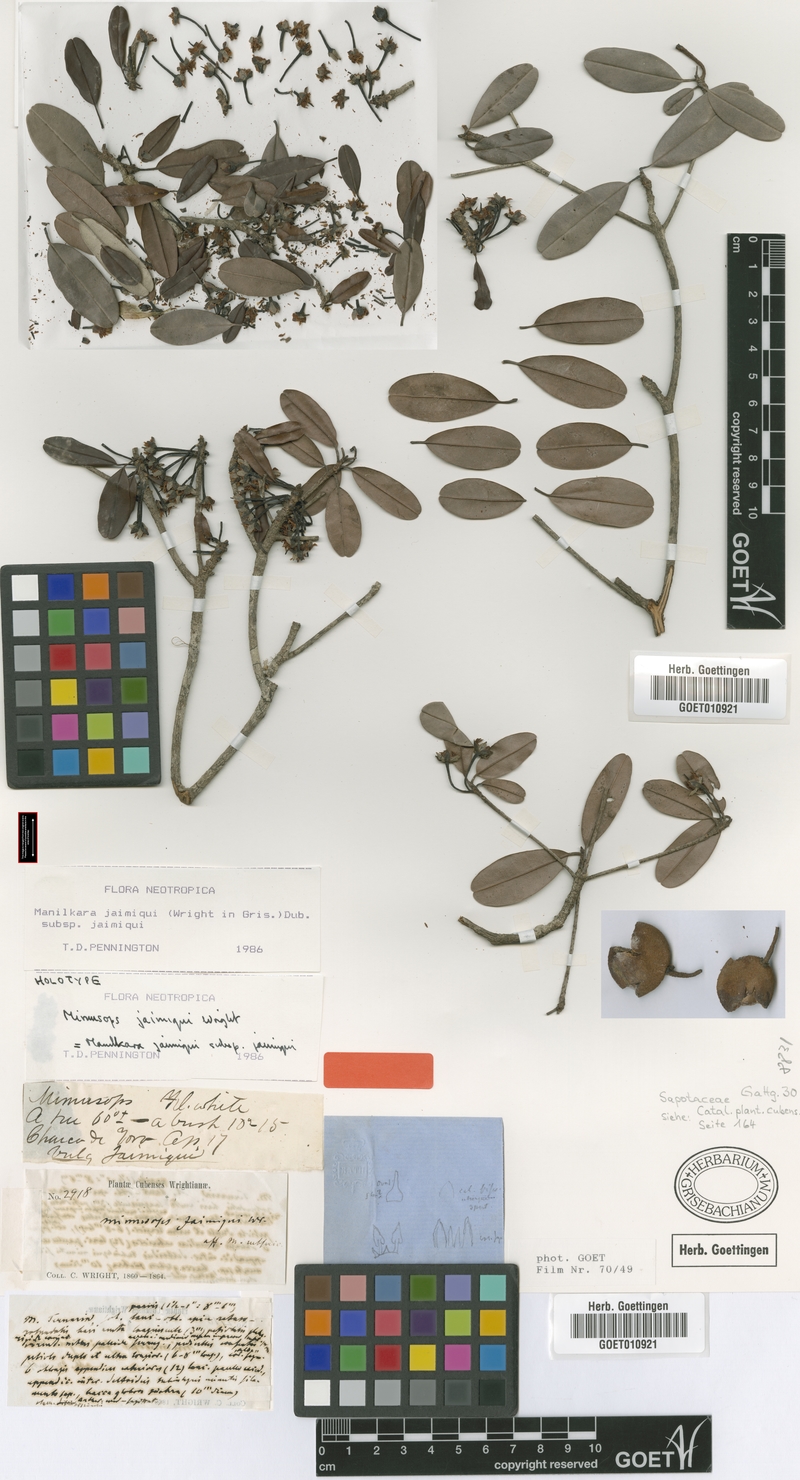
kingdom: Plantae
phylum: Tracheophyta
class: Magnoliopsida
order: Ericales
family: Sapotaceae
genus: Manilkara
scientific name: Manilkara jaimiqui
